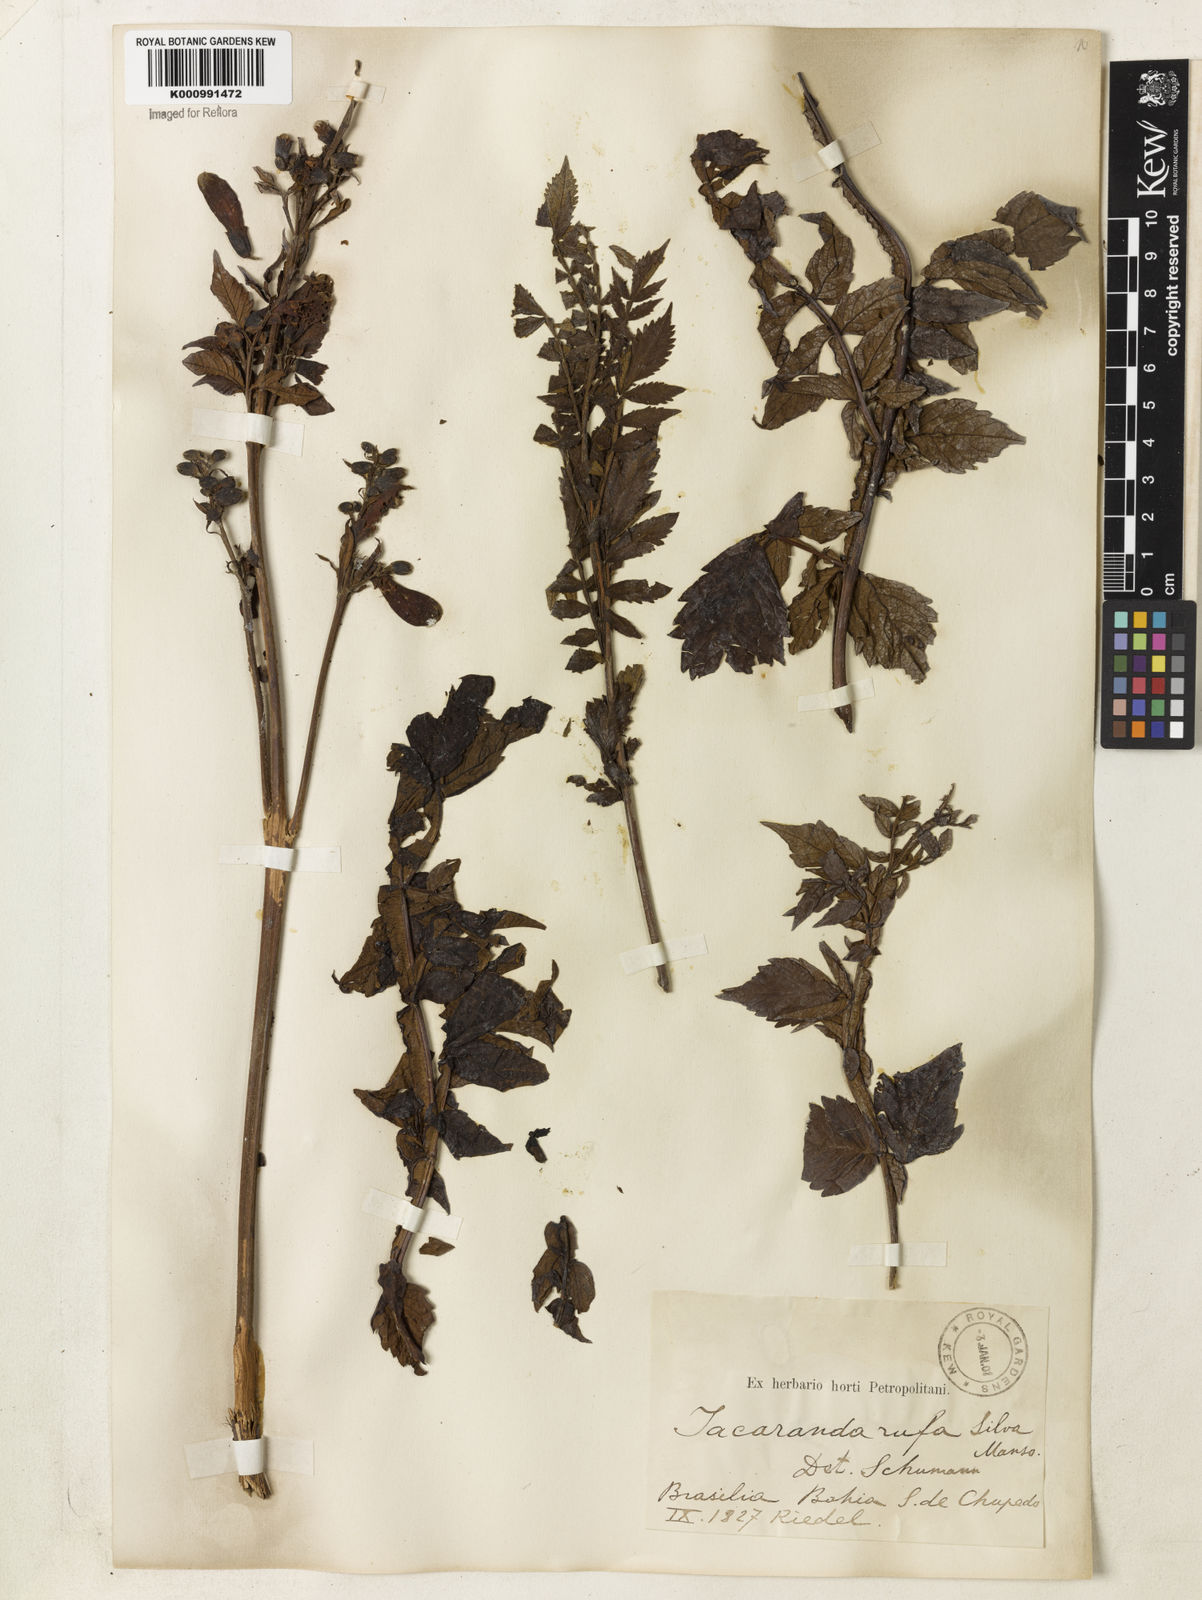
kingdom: Plantae
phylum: Tracheophyta
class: Magnoliopsida
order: Lamiales
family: Bignoniaceae
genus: Jacaranda
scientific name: Jacaranda rufa
